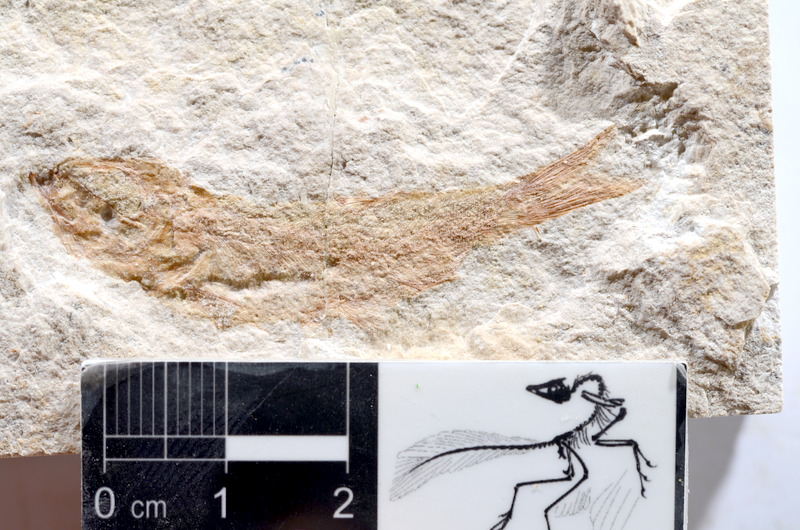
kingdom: Animalia
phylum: Chordata
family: Ascalaboidae
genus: Tharsis
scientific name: Tharsis dubius
